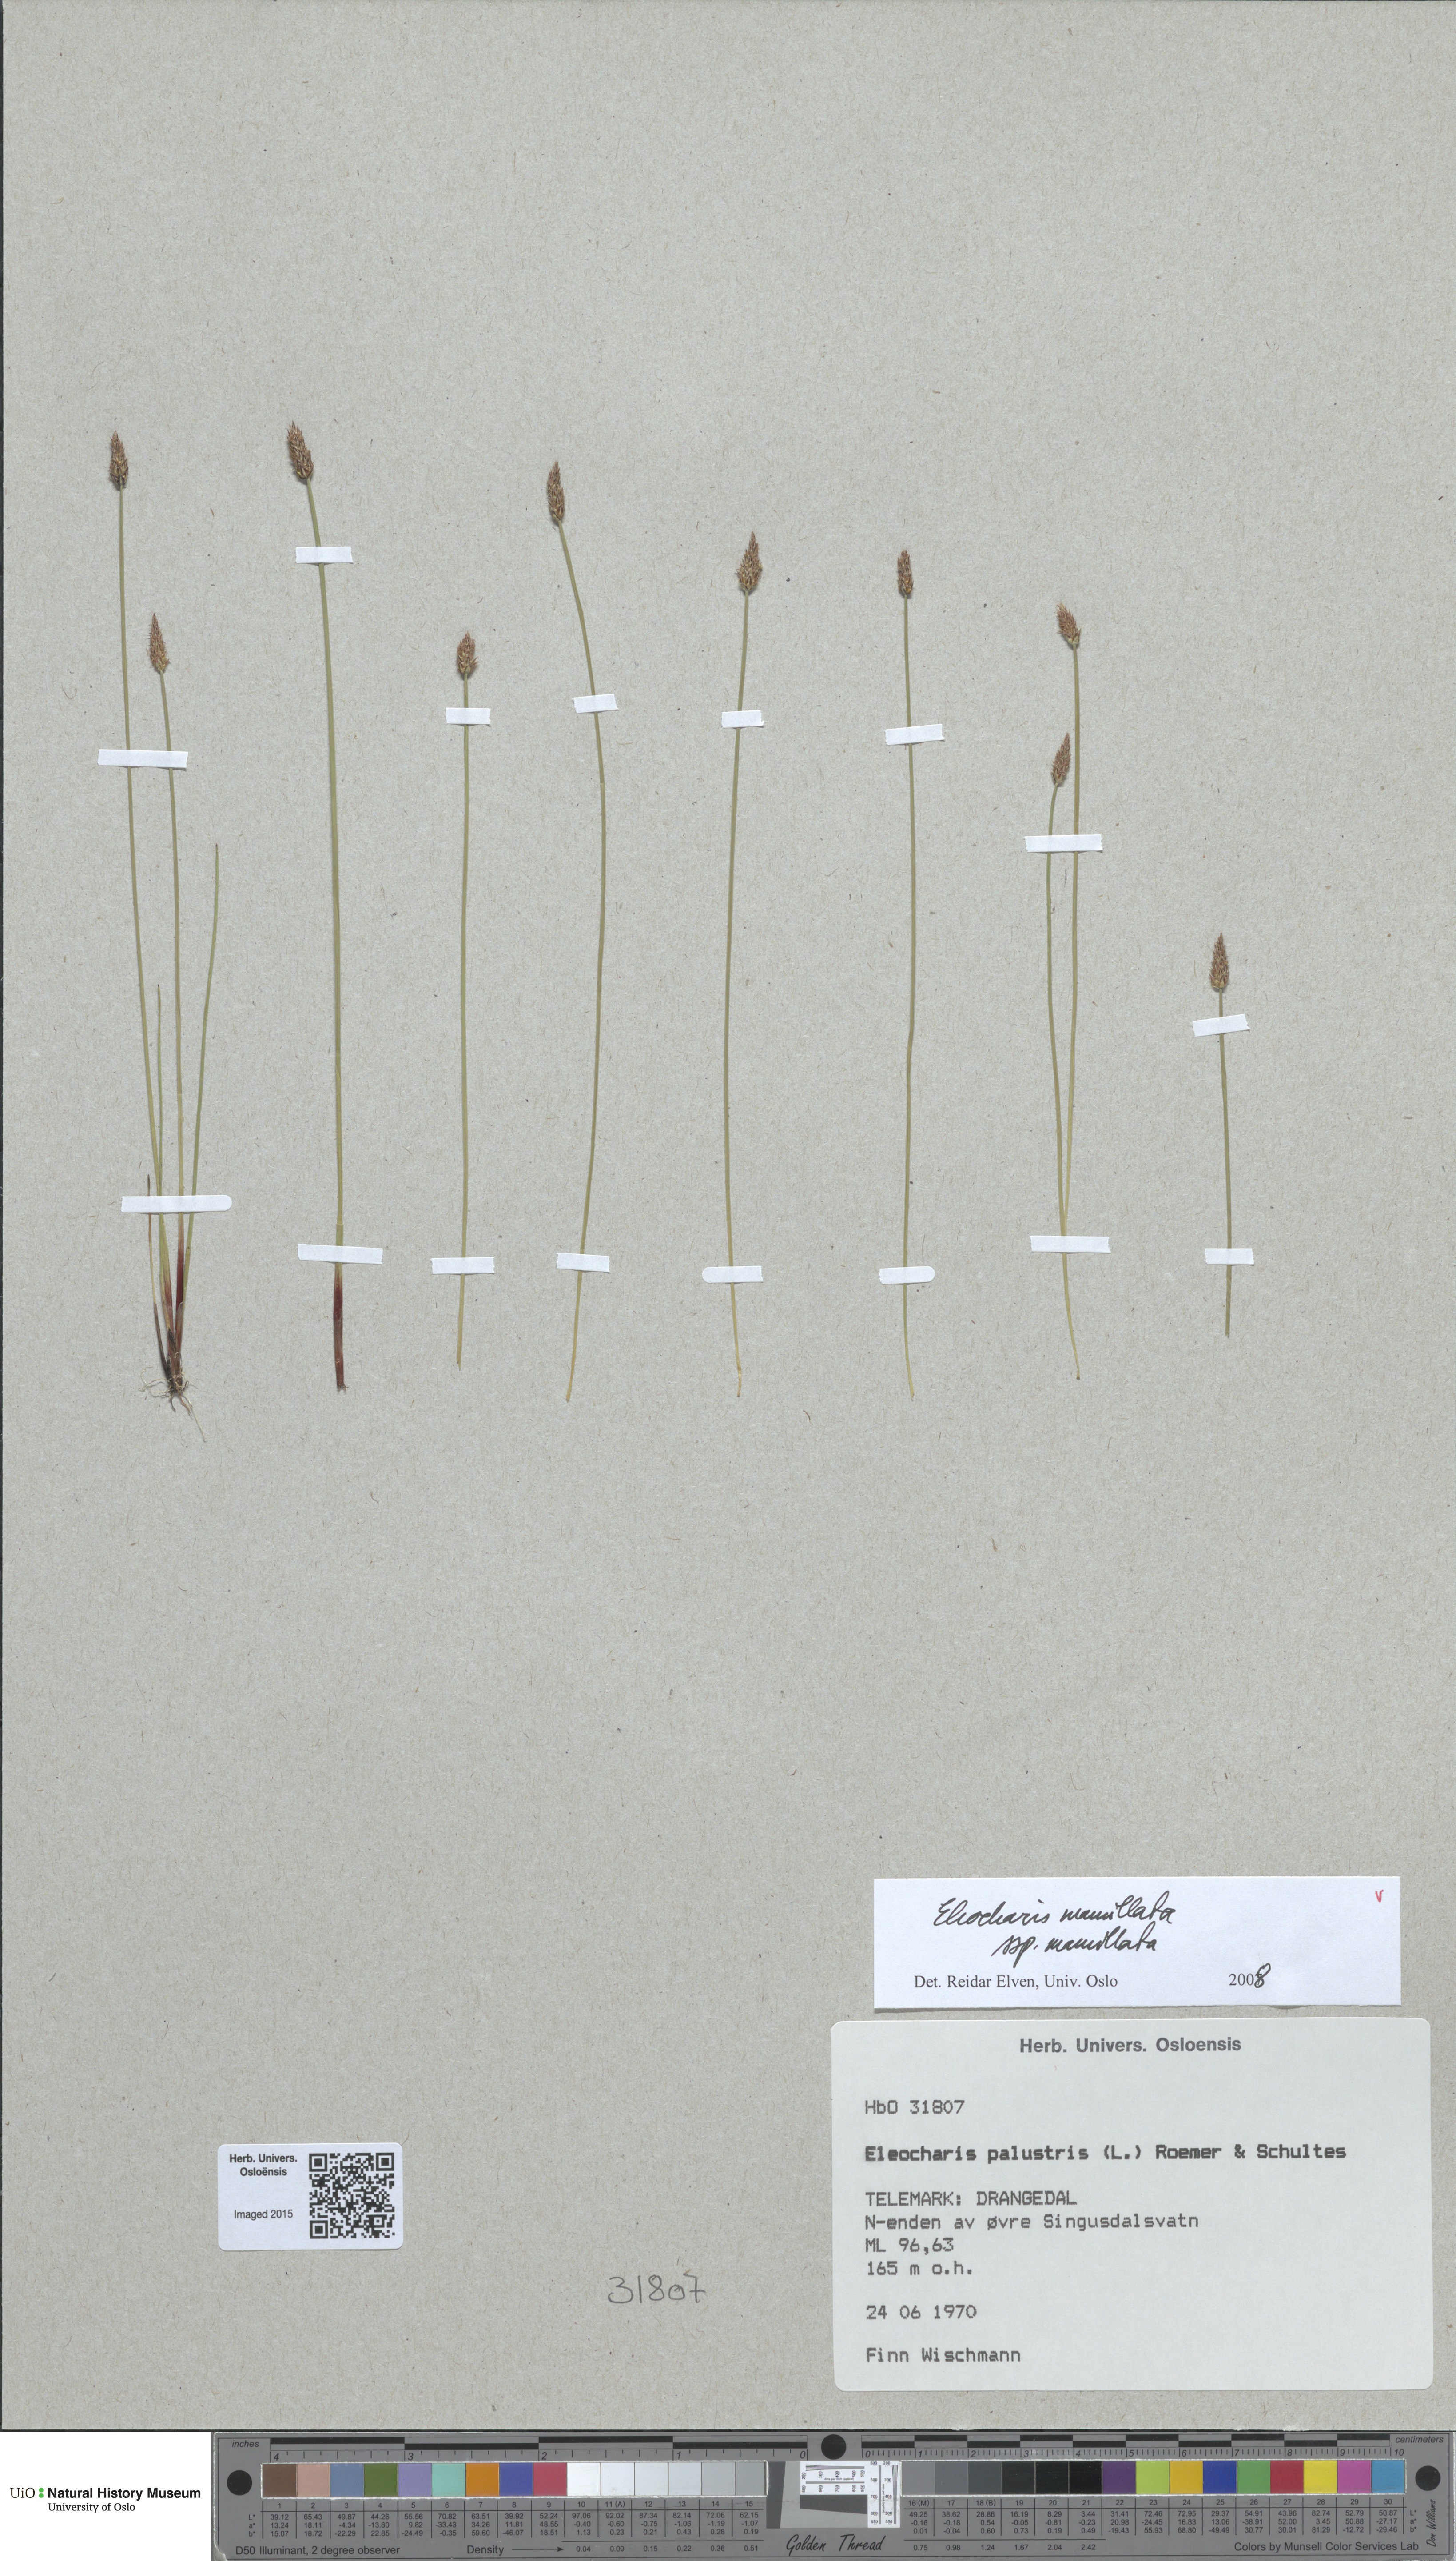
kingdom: Plantae
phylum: Tracheophyta
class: Liliopsida
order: Poales
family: Cyperaceae
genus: Eleocharis
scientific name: Eleocharis mamillata
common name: Northern spike-rush
